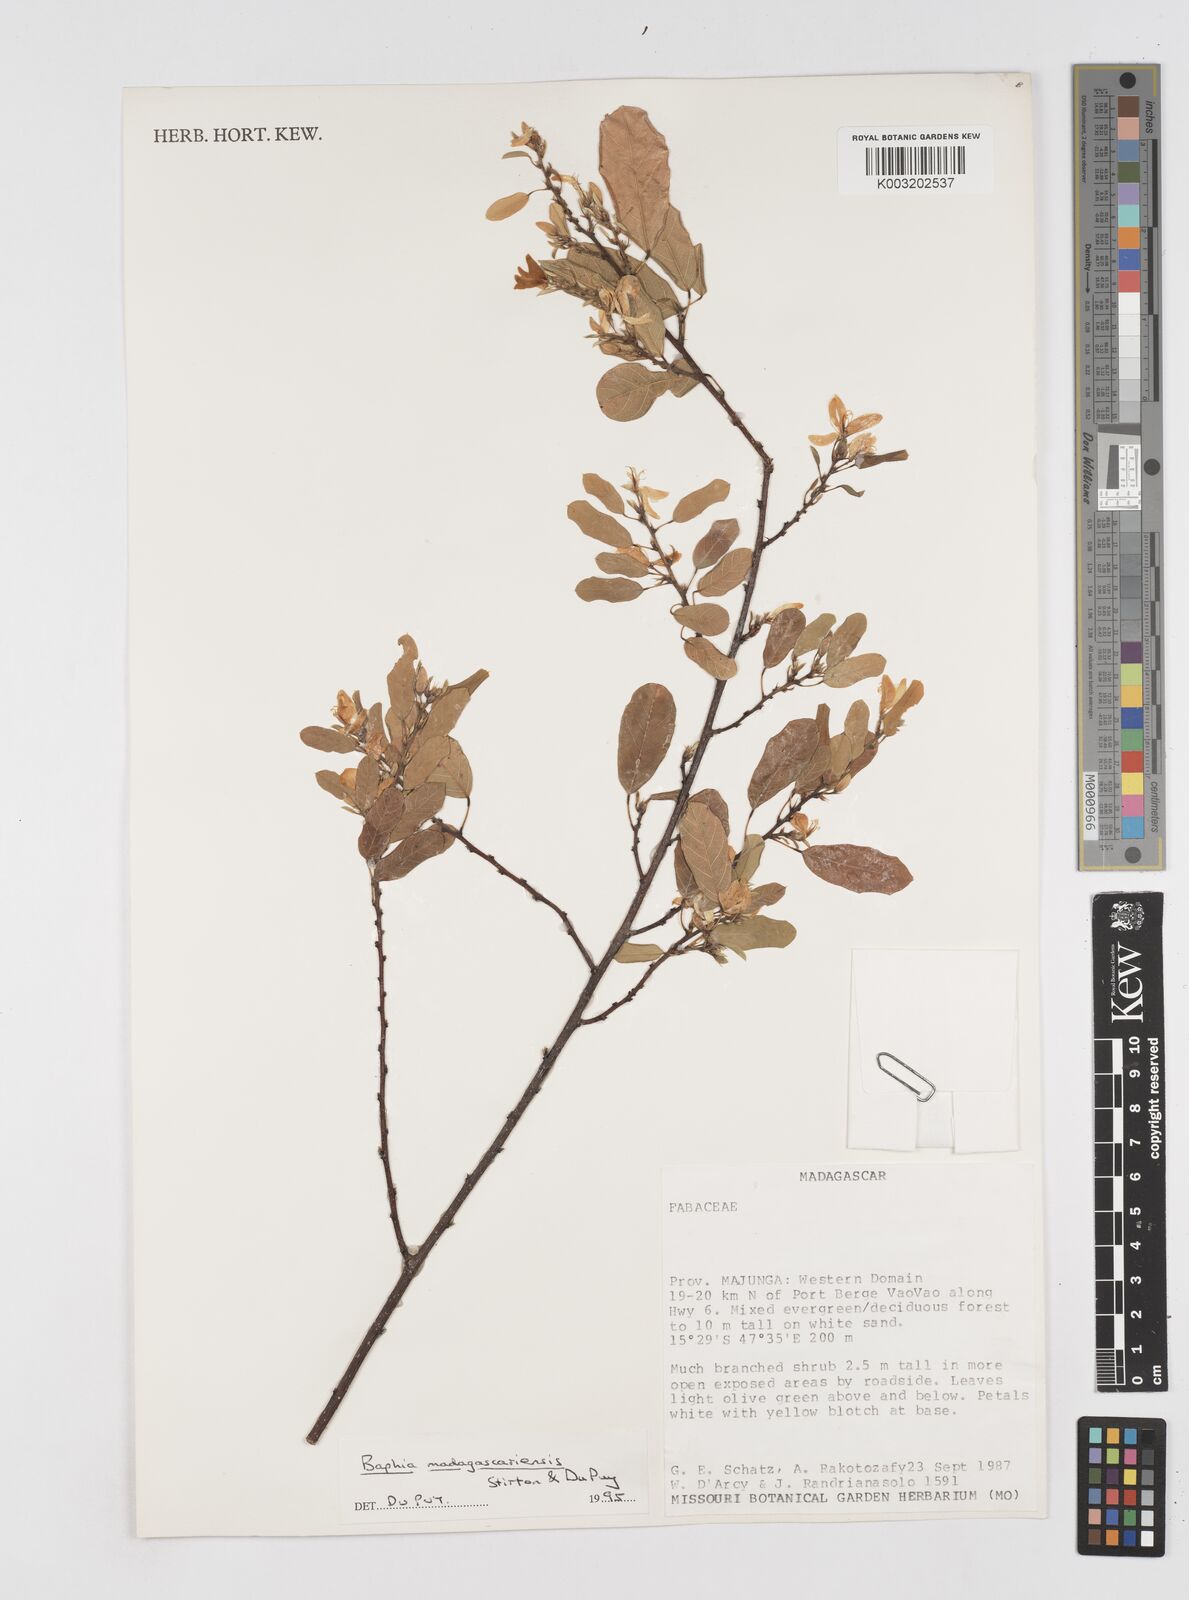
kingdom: Plantae
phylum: Tracheophyta
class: Magnoliopsida
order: Fabales
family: Fabaceae
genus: Baphia
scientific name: Baphia madagascariensis
